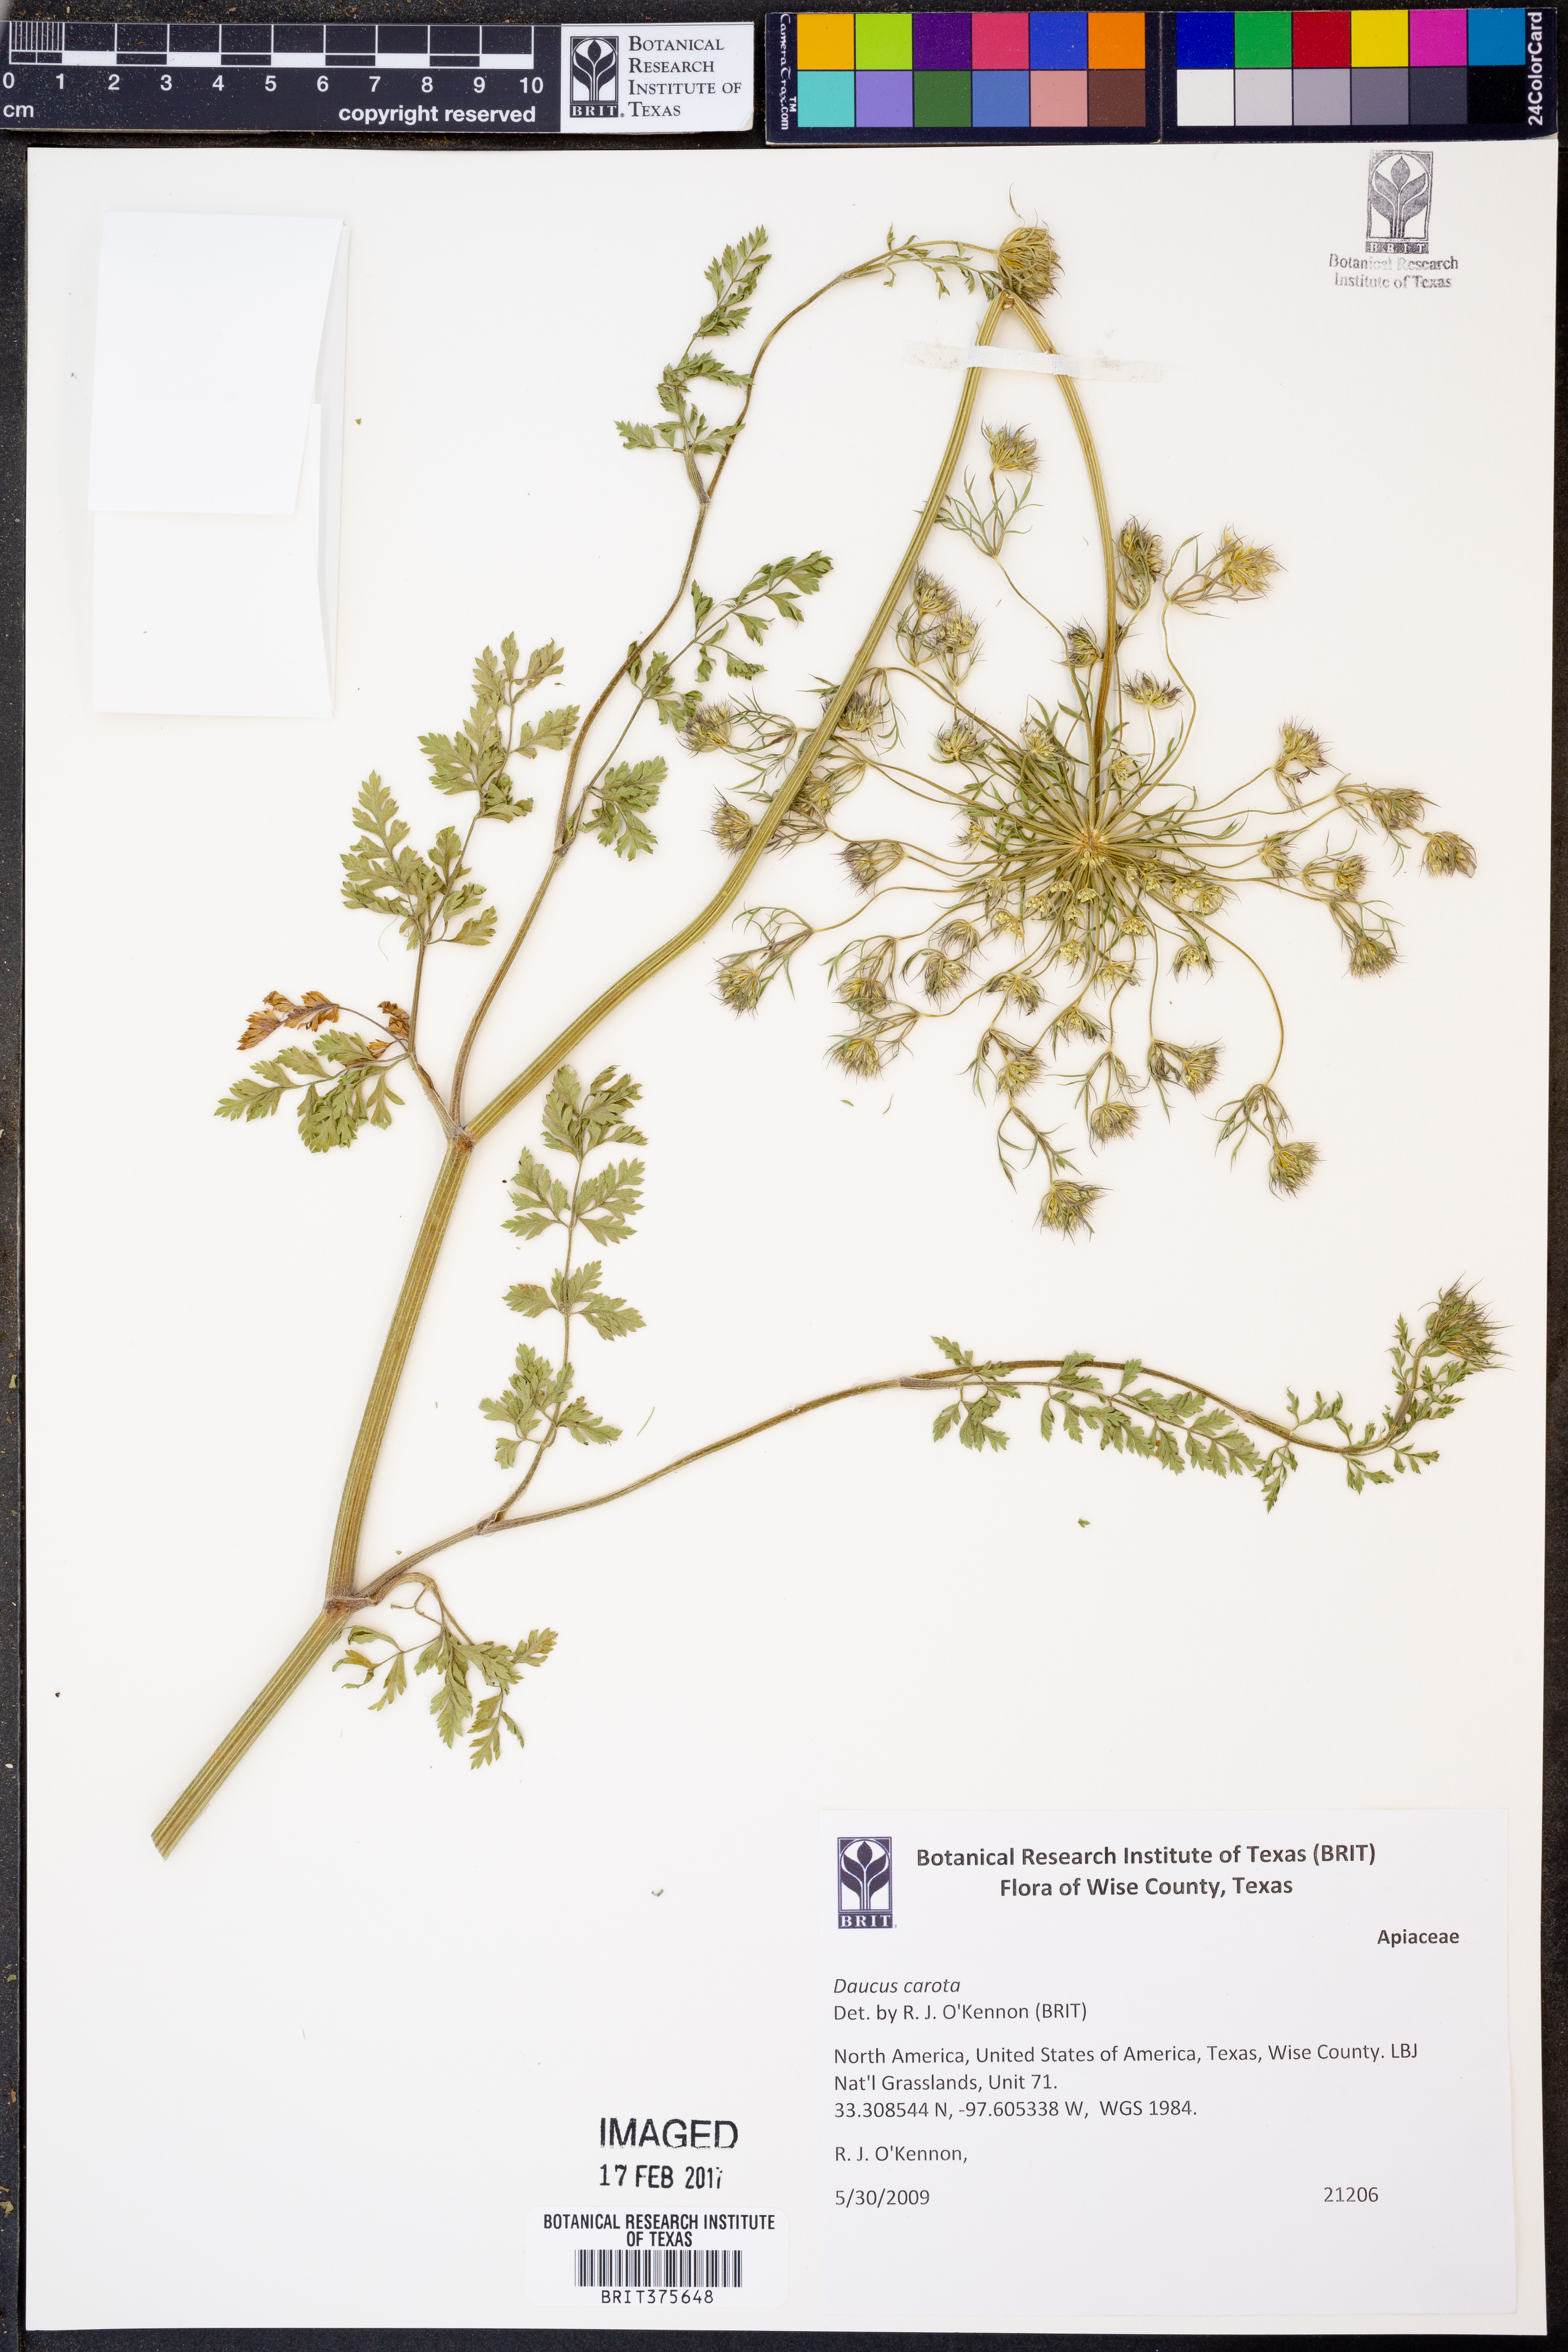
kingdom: Plantae
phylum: Tracheophyta
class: Magnoliopsida
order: Apiales
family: Apiaceae
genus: Daucus
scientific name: Daucus carota
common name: Wild carrot
